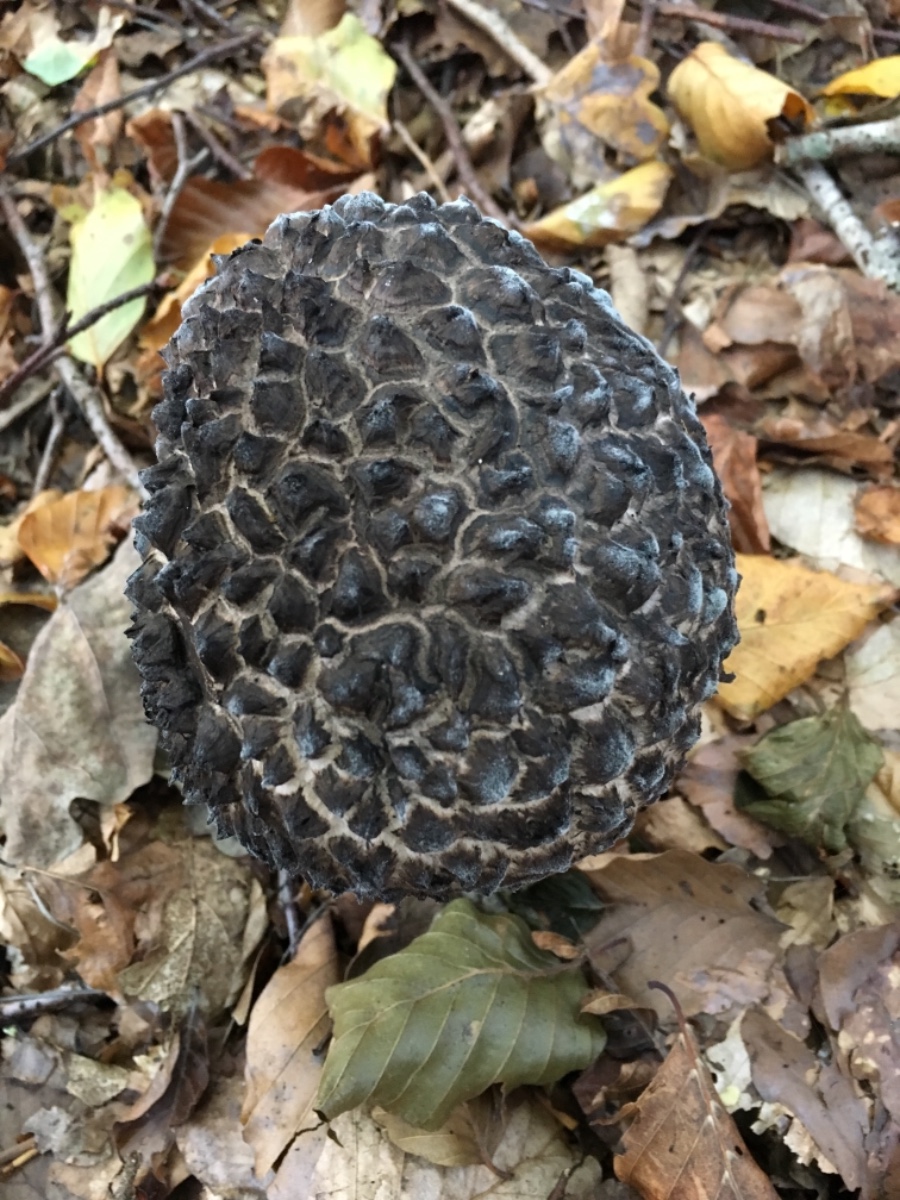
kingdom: Fungi
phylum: Basidiomycota
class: Agaricomycetes
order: Boletales
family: Boletaceae
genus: Strobilomyces
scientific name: Strobilomyces strobilaceus
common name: koglerørhat
